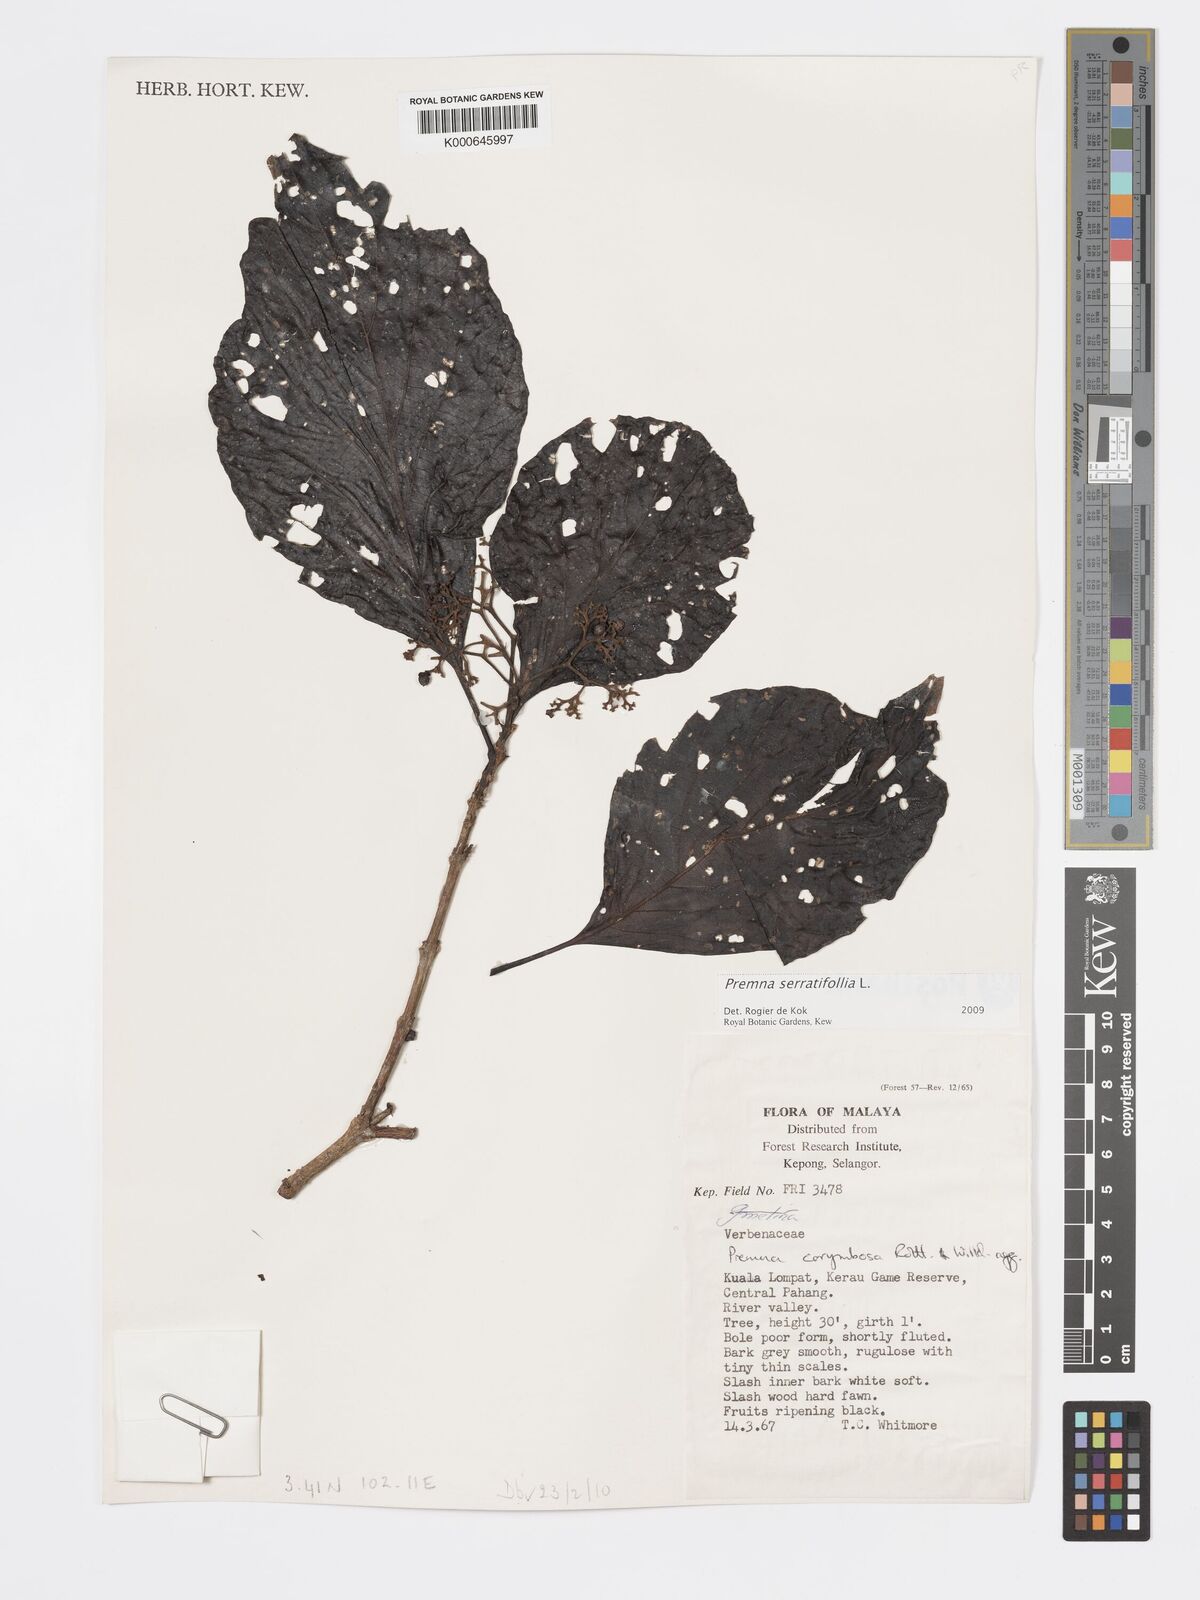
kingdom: Plantae
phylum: Tracheophyta
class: Magnoliopsida
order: Lamiales
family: Lamiaceae
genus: Premna
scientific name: Premna serratifolia
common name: Bastard guelder
